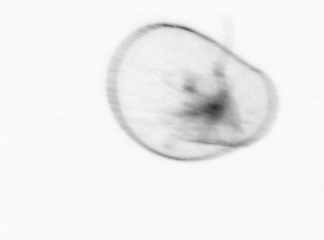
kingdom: Chromista
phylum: Myzozoa
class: Dinophyceae
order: Noctilucales
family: Noctilucaceae
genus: Noctiluca
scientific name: Noctiluca scintillans
